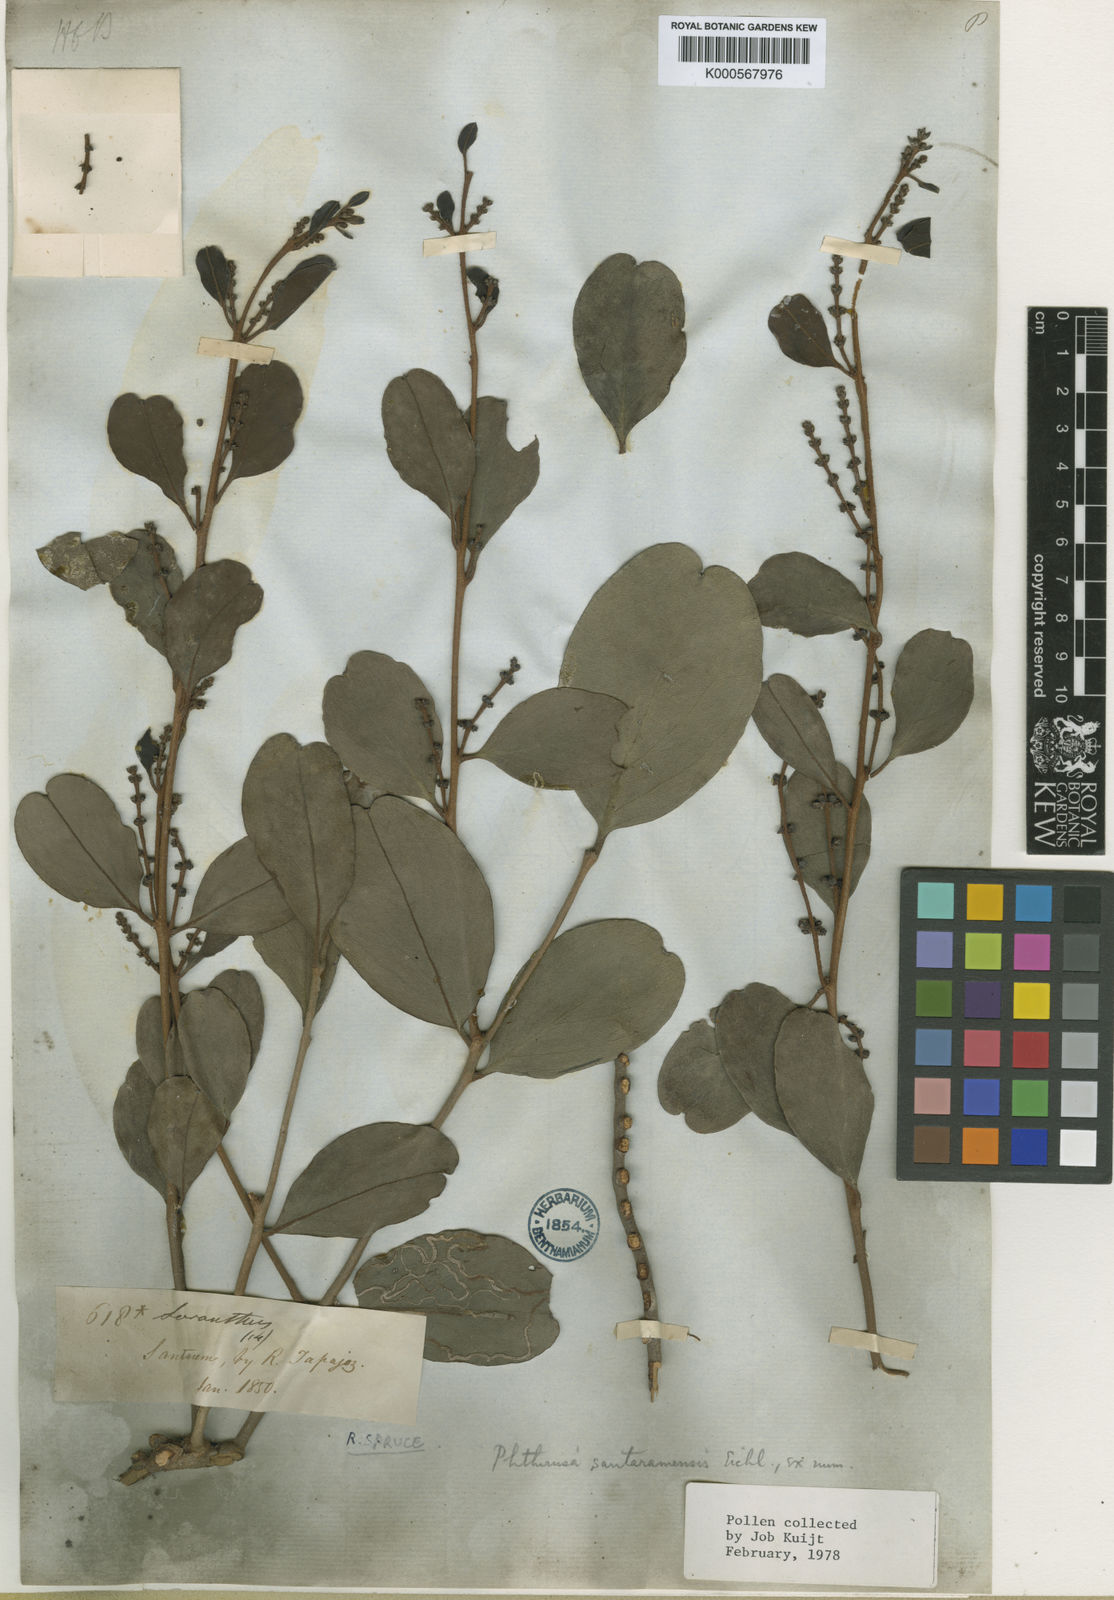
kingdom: Plantae
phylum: Tracheophyta
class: Magnoliopsida
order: Santalales
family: Loranthaceae
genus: Passovia
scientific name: Passovia santaremensis
